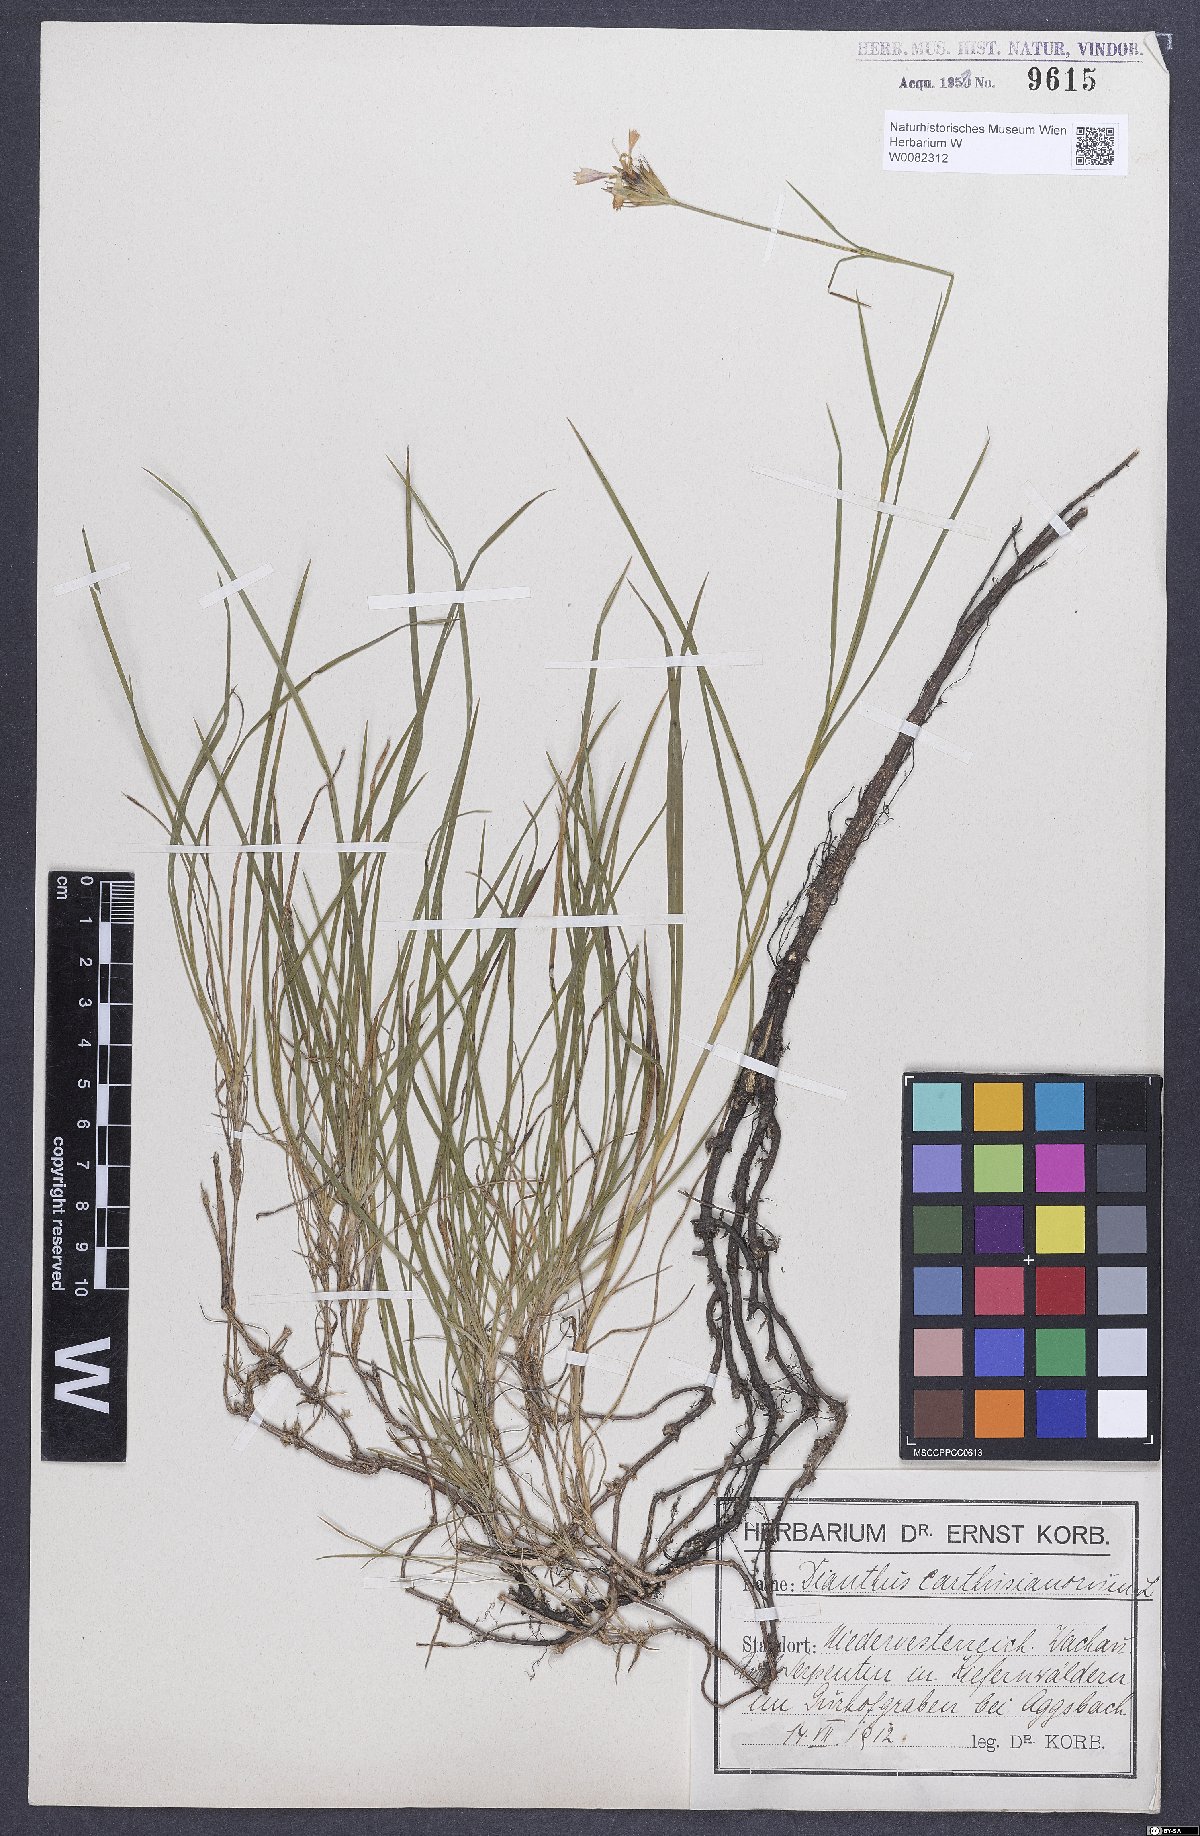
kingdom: Plantae
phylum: Tracheophyta
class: Magnoliopsida
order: Caryophyllales
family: Caryophyllaceae
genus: Dianthus
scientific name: Dianthus carthusianorum
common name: Carthusian pink
